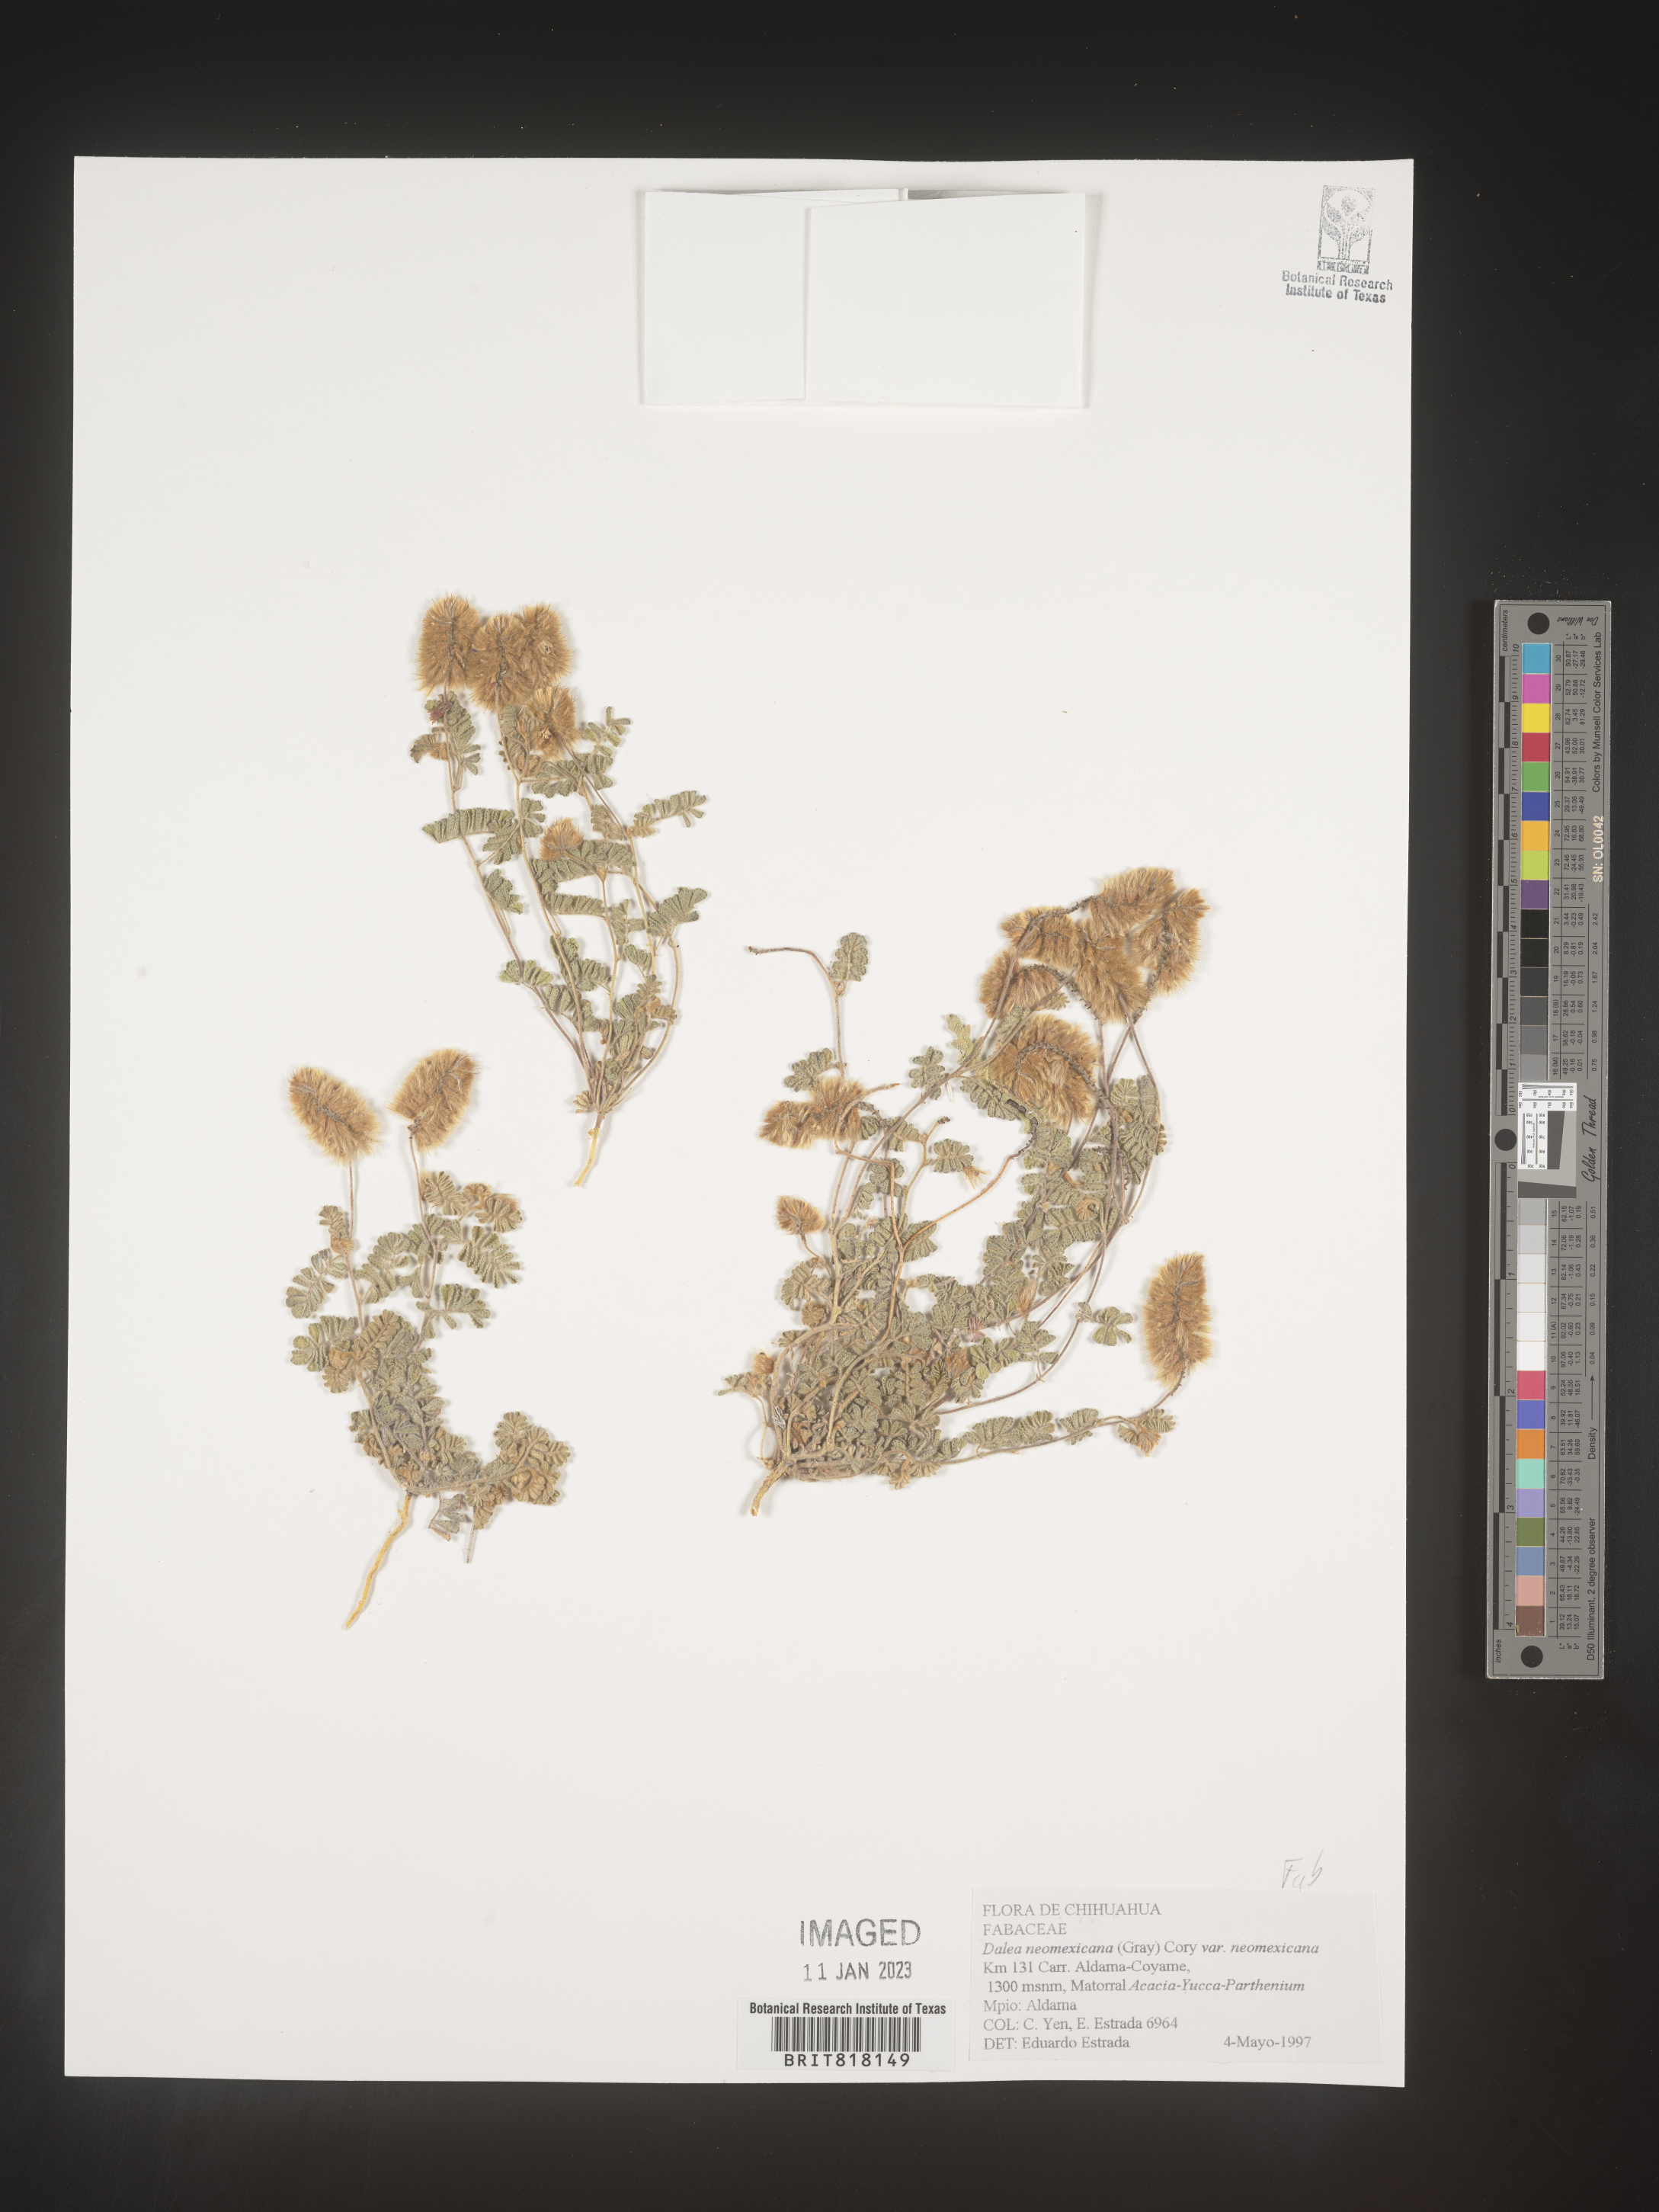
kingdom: Plantae
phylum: Tracheophyta
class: Magnoliopsida
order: Fabales
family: Fabaceae
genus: Dalea
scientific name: Dalea
